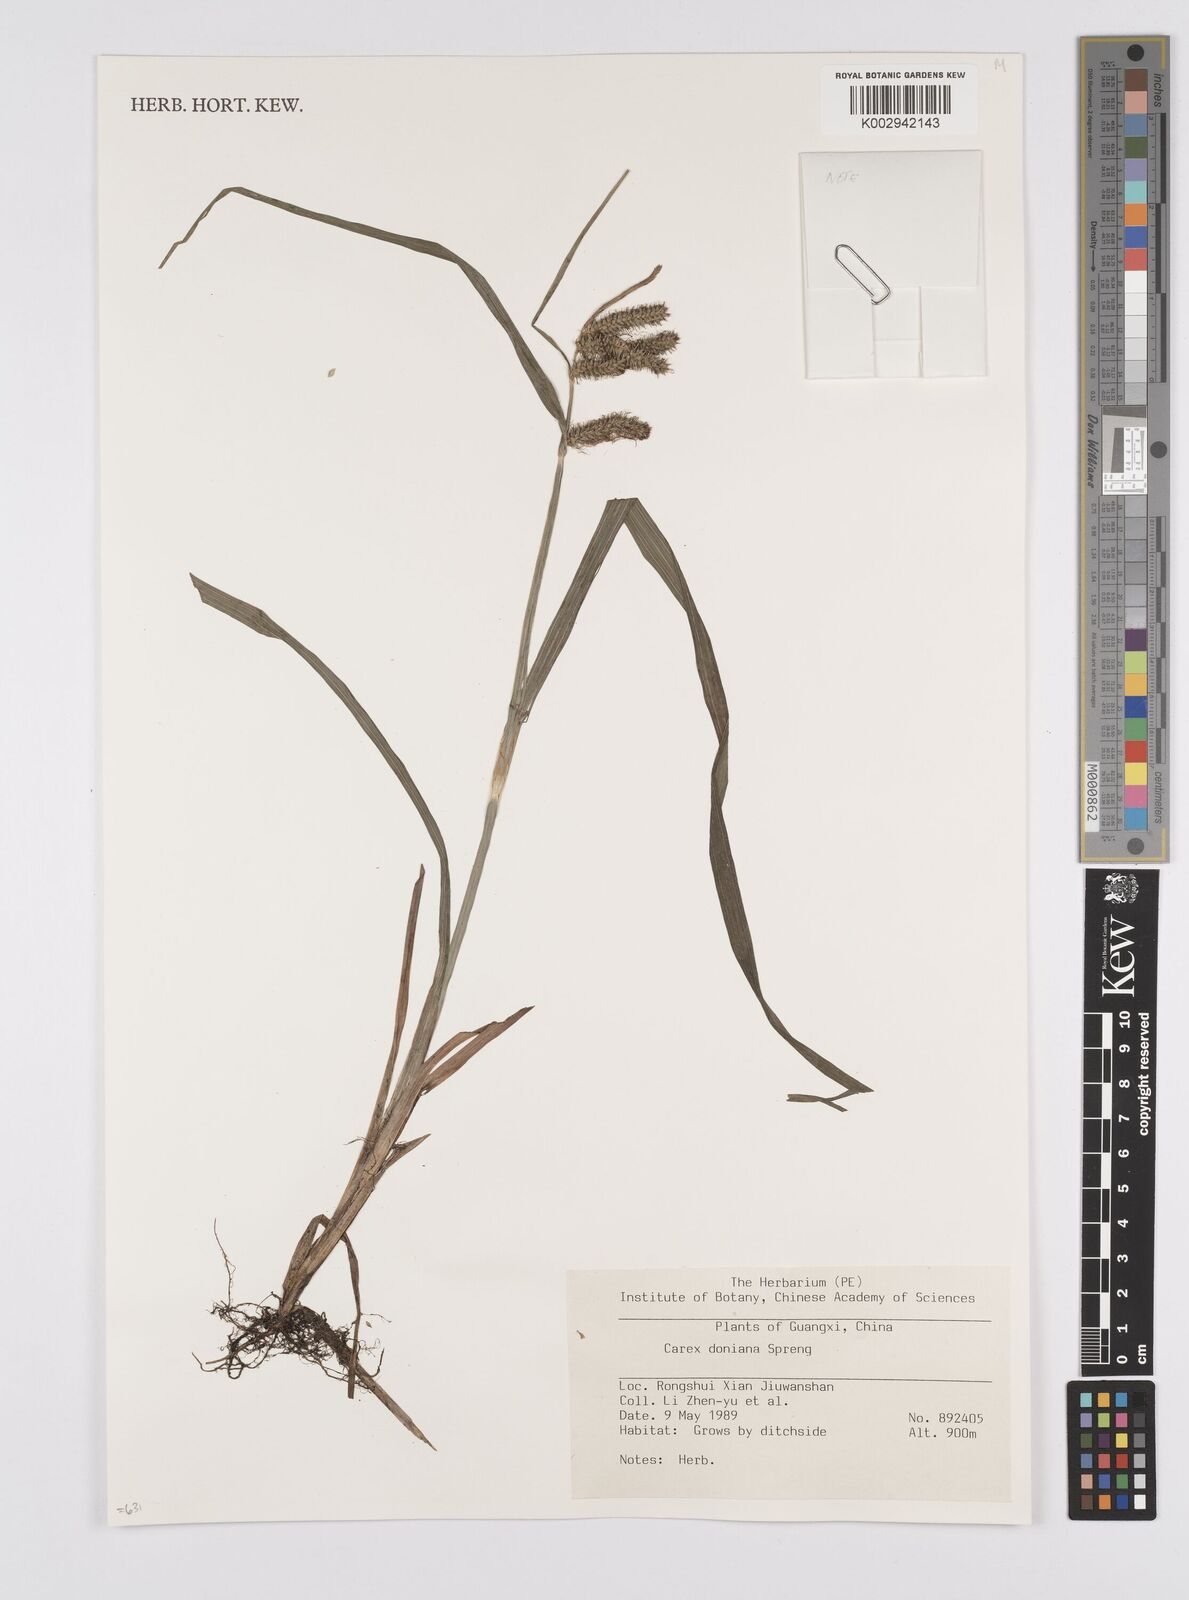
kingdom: Plantae
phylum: Tracheophyta
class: Liliopsida
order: Poales
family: Cyperaceae
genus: Carex
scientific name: Carex japonica
